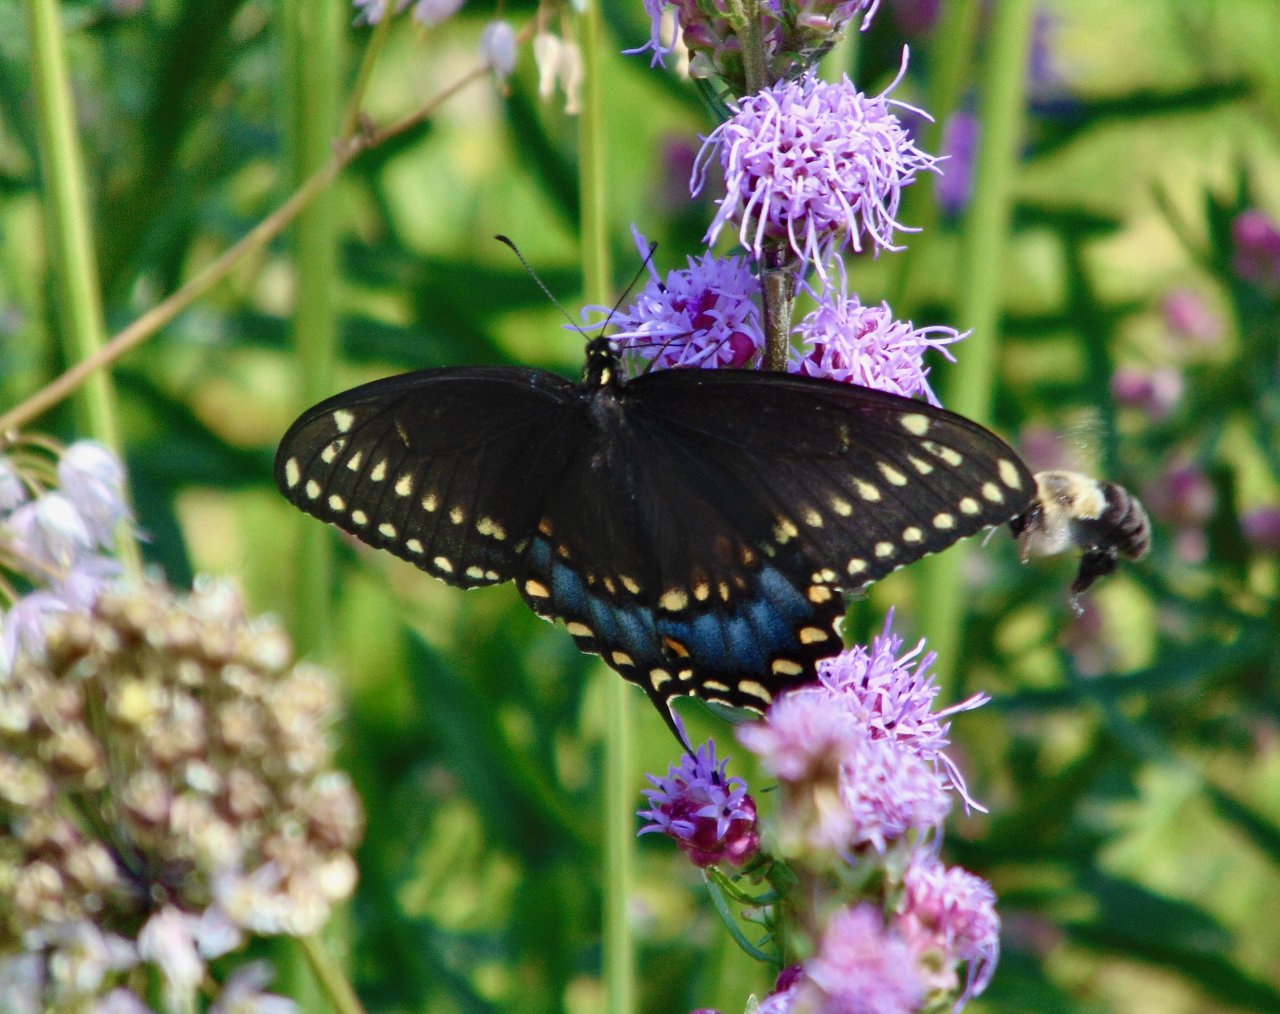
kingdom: Animalia
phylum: Arthropoda
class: Insecta
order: Lepidoptera
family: Papilionidae
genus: Papilio
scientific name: Papilio polyxenes
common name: Black Swallowtail
